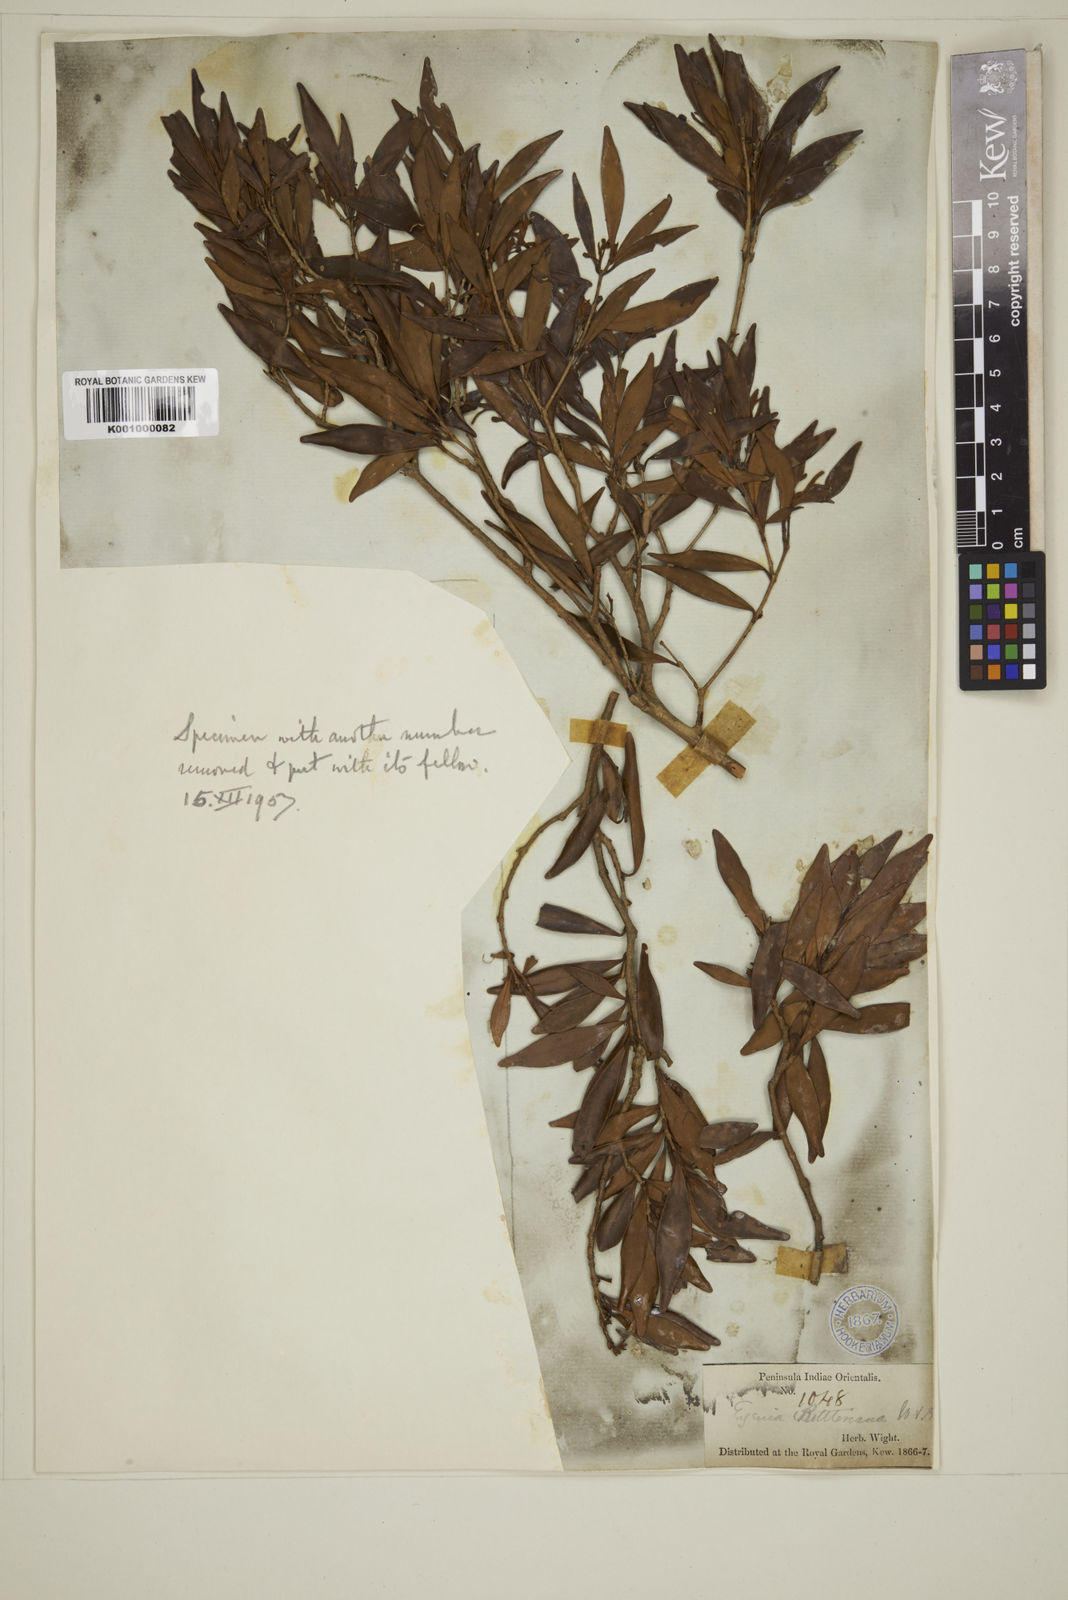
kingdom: Plantae
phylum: Tracheophyta
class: Magnoliopsida
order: Myrtales
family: Myrtaceae
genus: Eugenia
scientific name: Eugenia rottleriana
